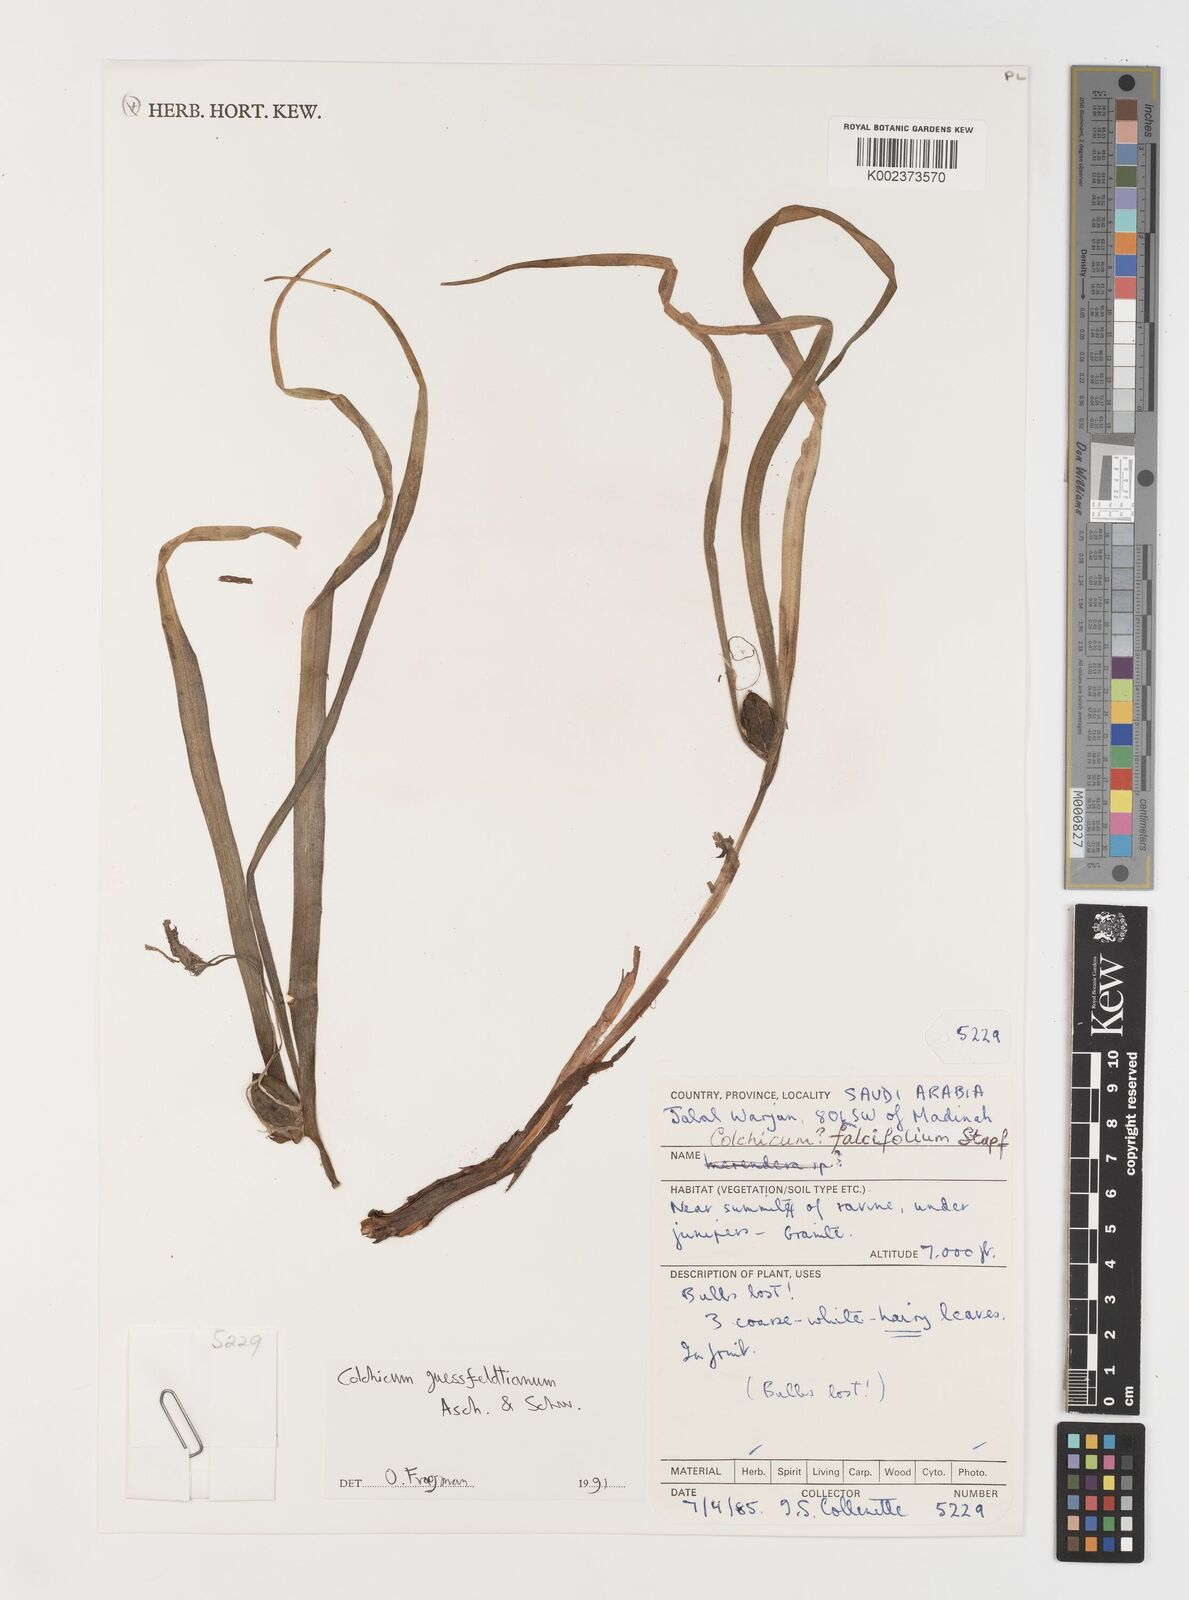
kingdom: Plantae
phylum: Tracheophyta
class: Liliopsida
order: Liliales
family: Colchicaceae
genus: Colchicum
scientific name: Colchicum ritchii
